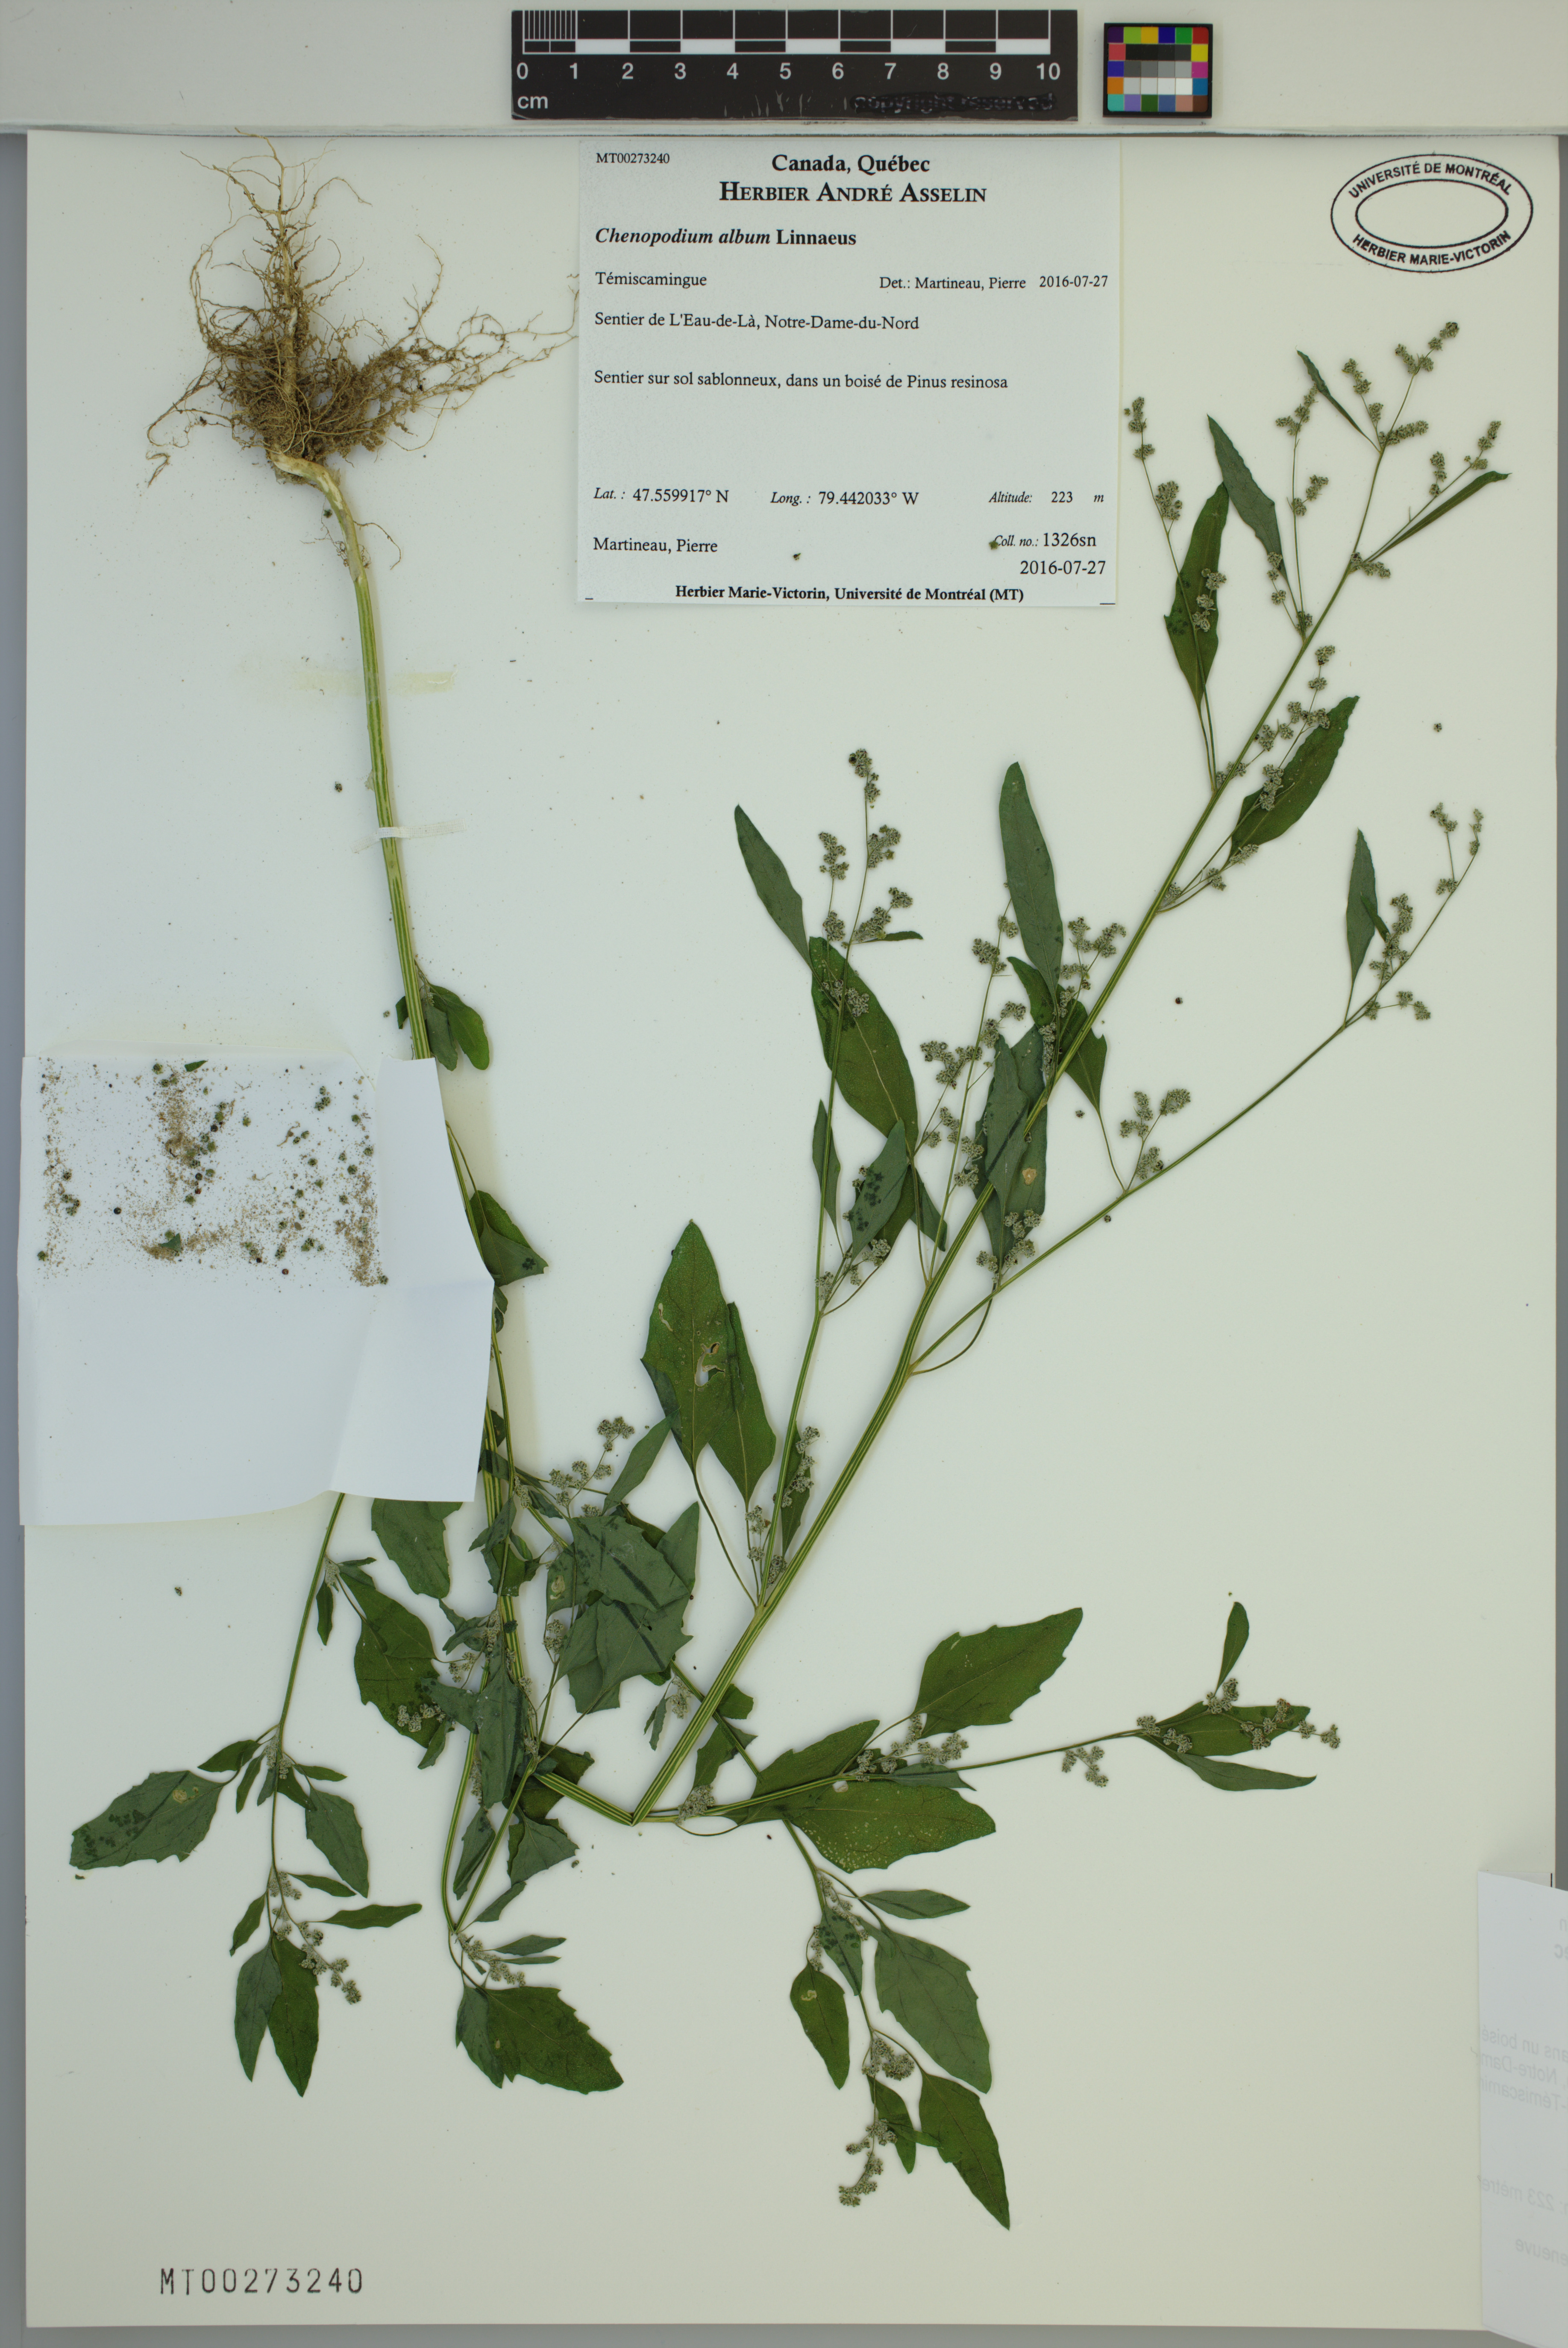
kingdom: Plantae
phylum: Tracheophyta
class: Magnoliopsida
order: Caryophyllales
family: Amaranthaceae
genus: Chenopodium
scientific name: Chenopodium album
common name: Fat-hen
